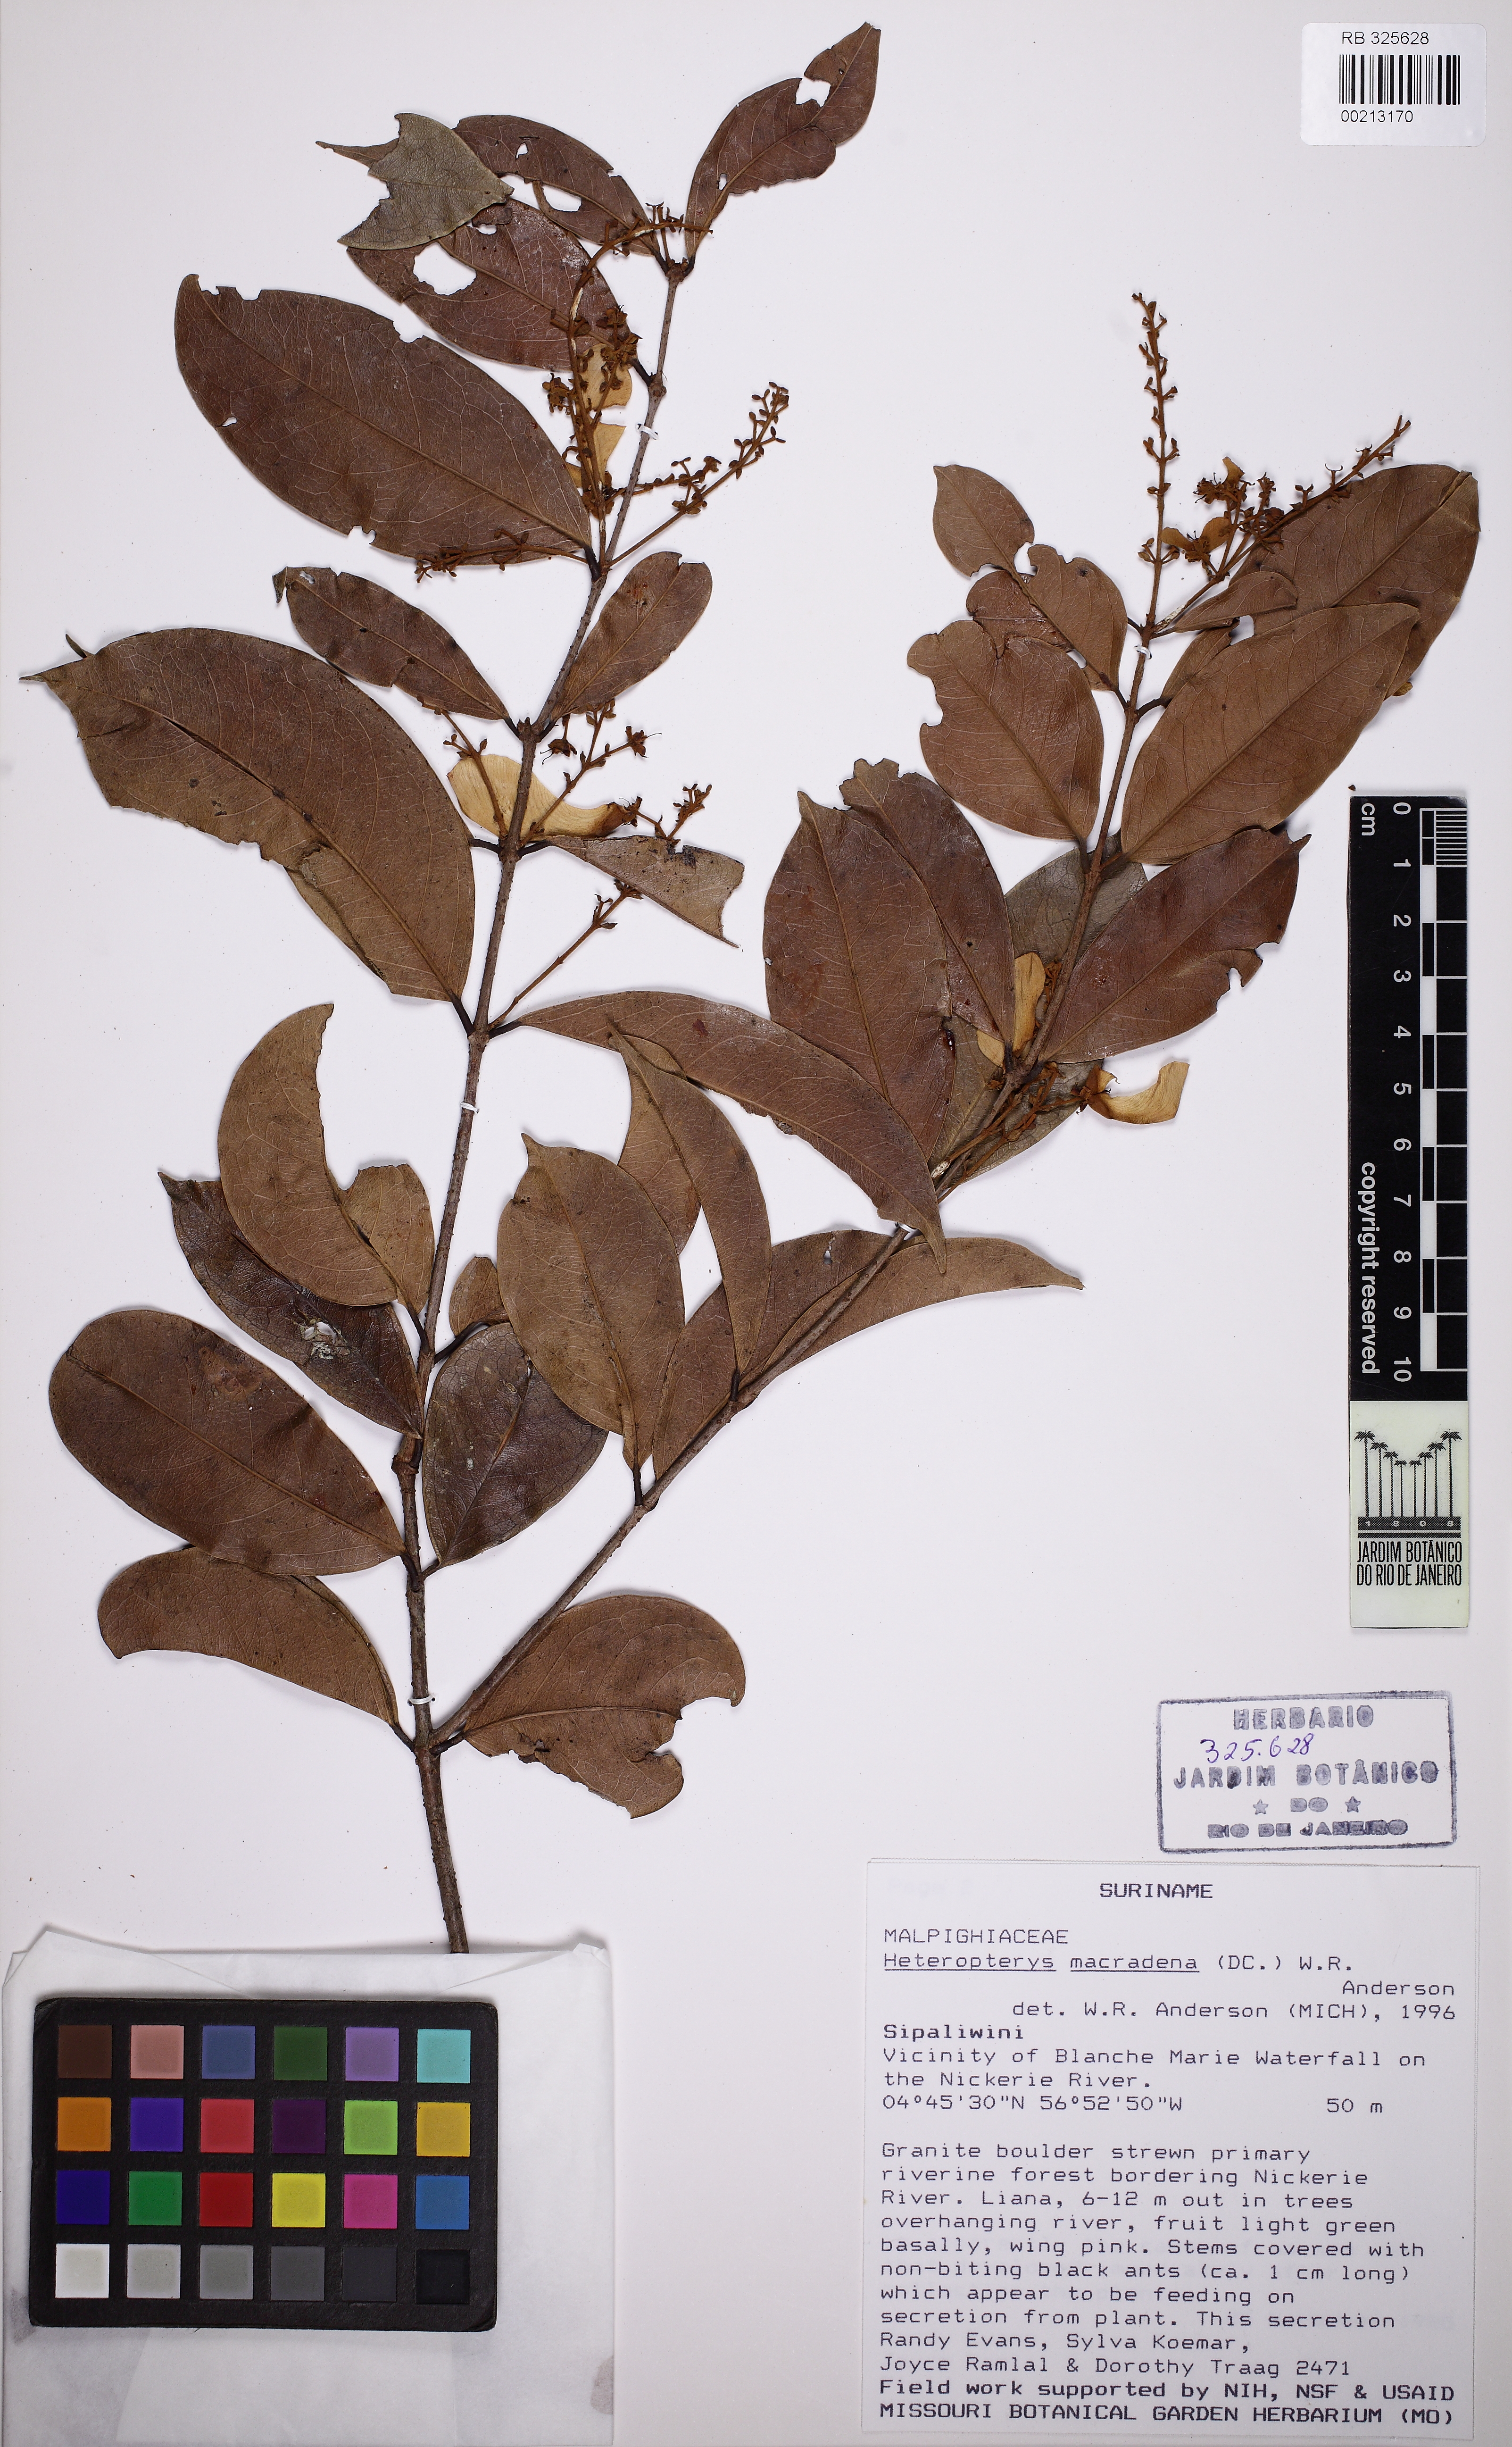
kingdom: Plantae
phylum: Tracheophyta
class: Magnoliopsida
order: Malpighiales
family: Malpighiaceae
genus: Heteropterys
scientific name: Heteropterys macradena
